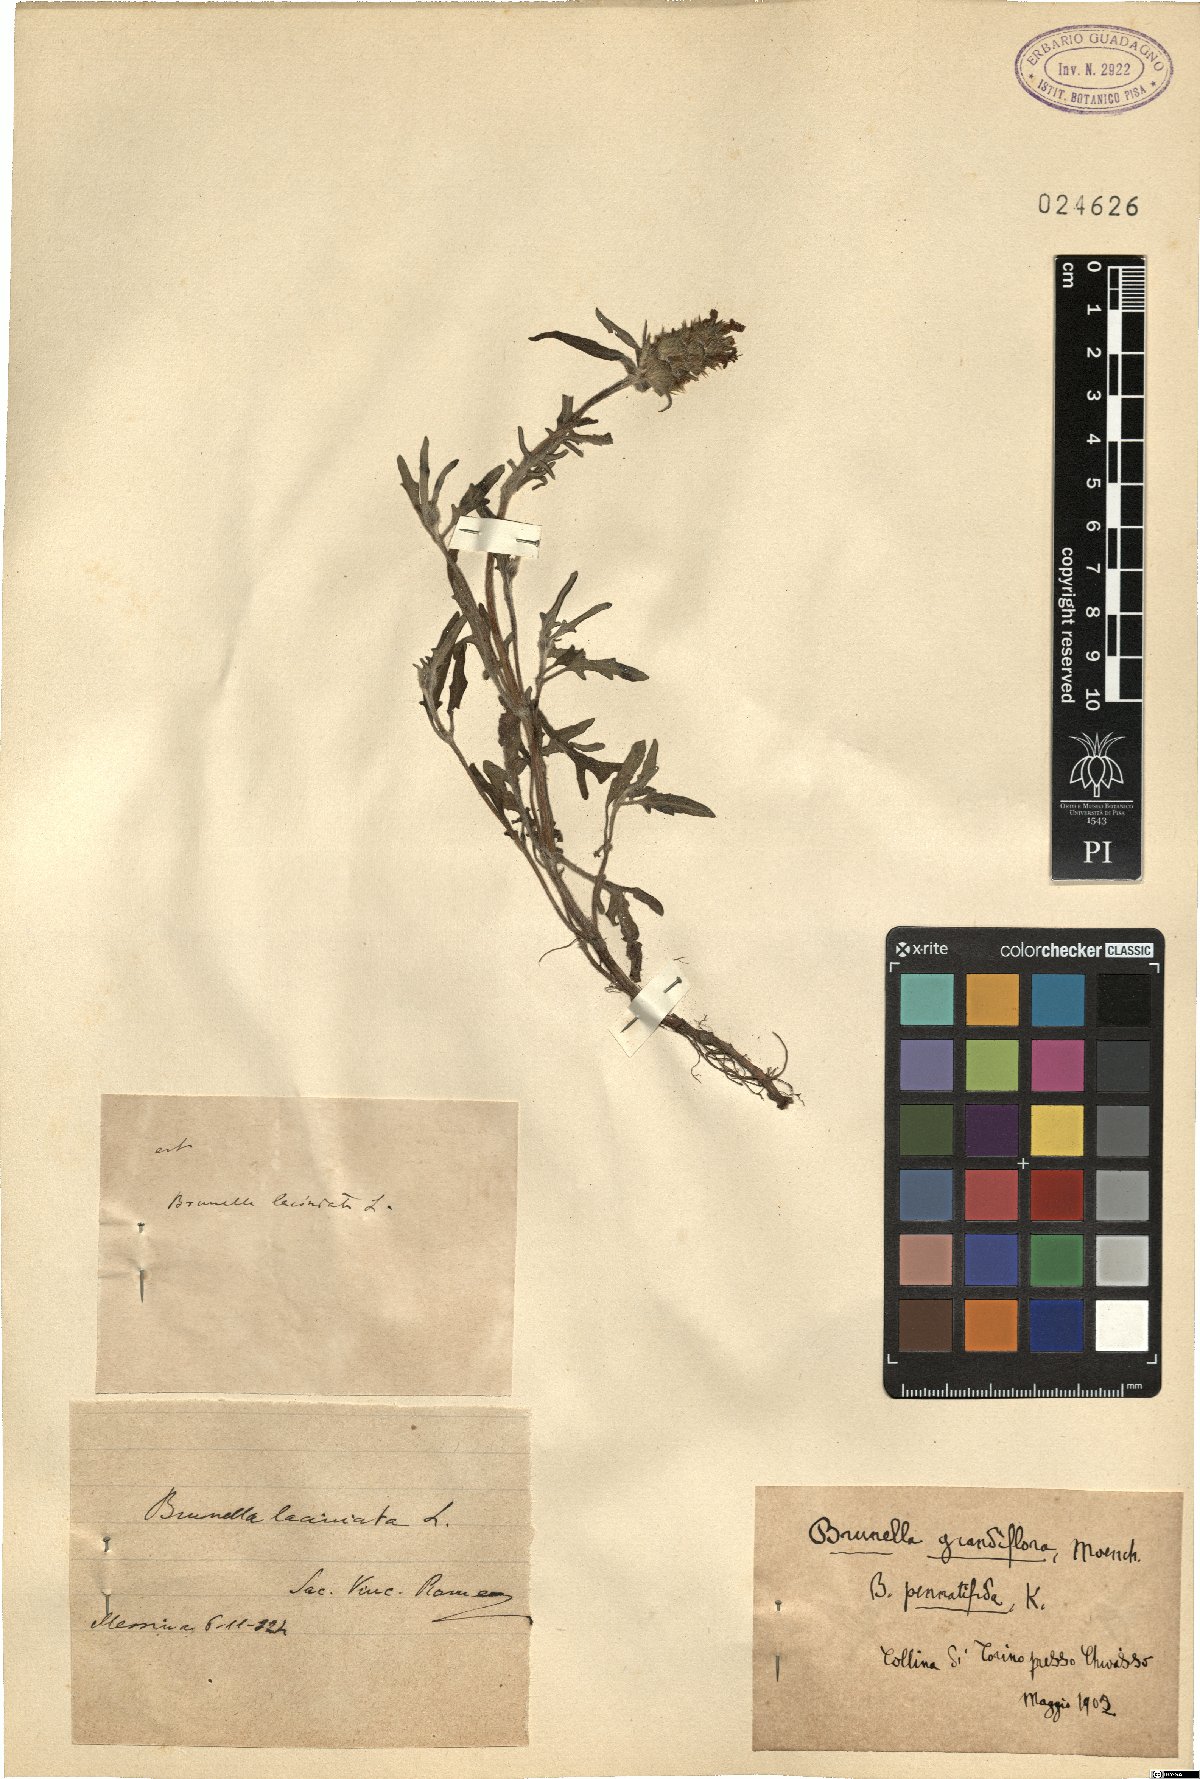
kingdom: Plantae
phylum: Tracheophyta
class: Magnoliopsida
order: Lamiales
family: Lamiaceae
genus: Prunella
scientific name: Prunella grandiflora
